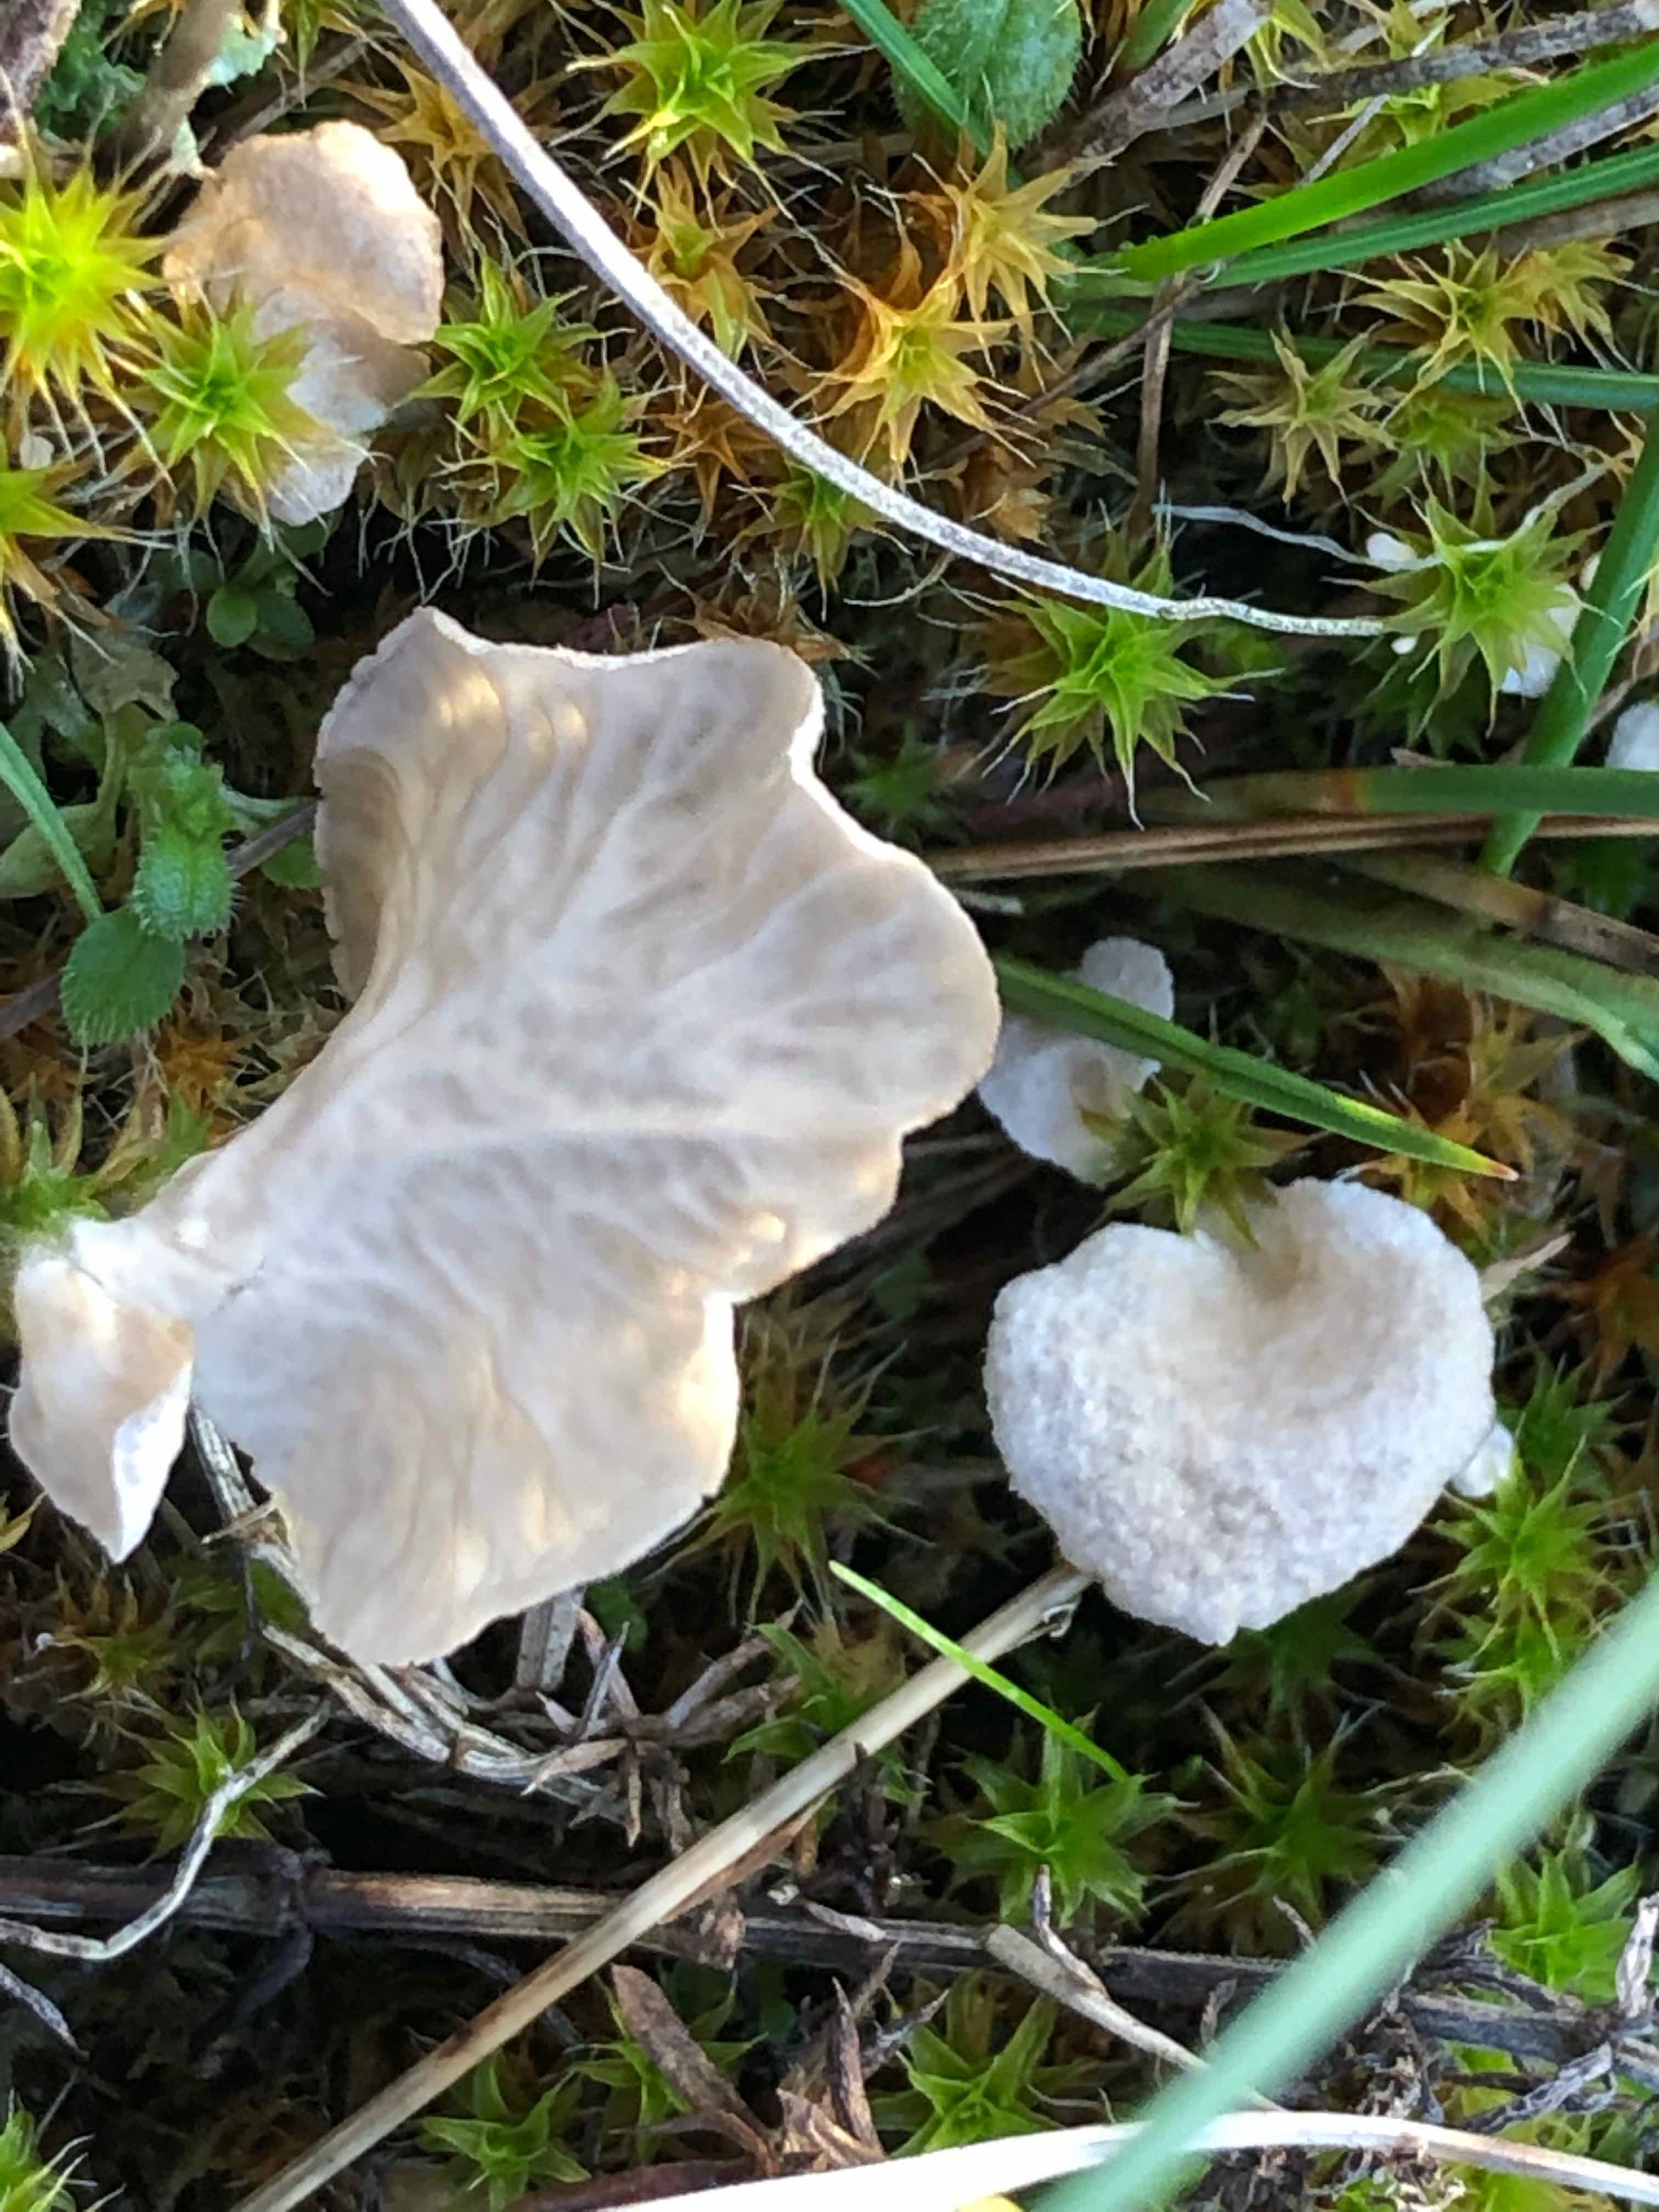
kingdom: Fungi
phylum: Basidiomycota
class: Agaricomycetes
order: Agaricales
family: Hygrophoraceae
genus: Arrhenia
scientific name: Arrhenia spathulata
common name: skæv fontænehat
